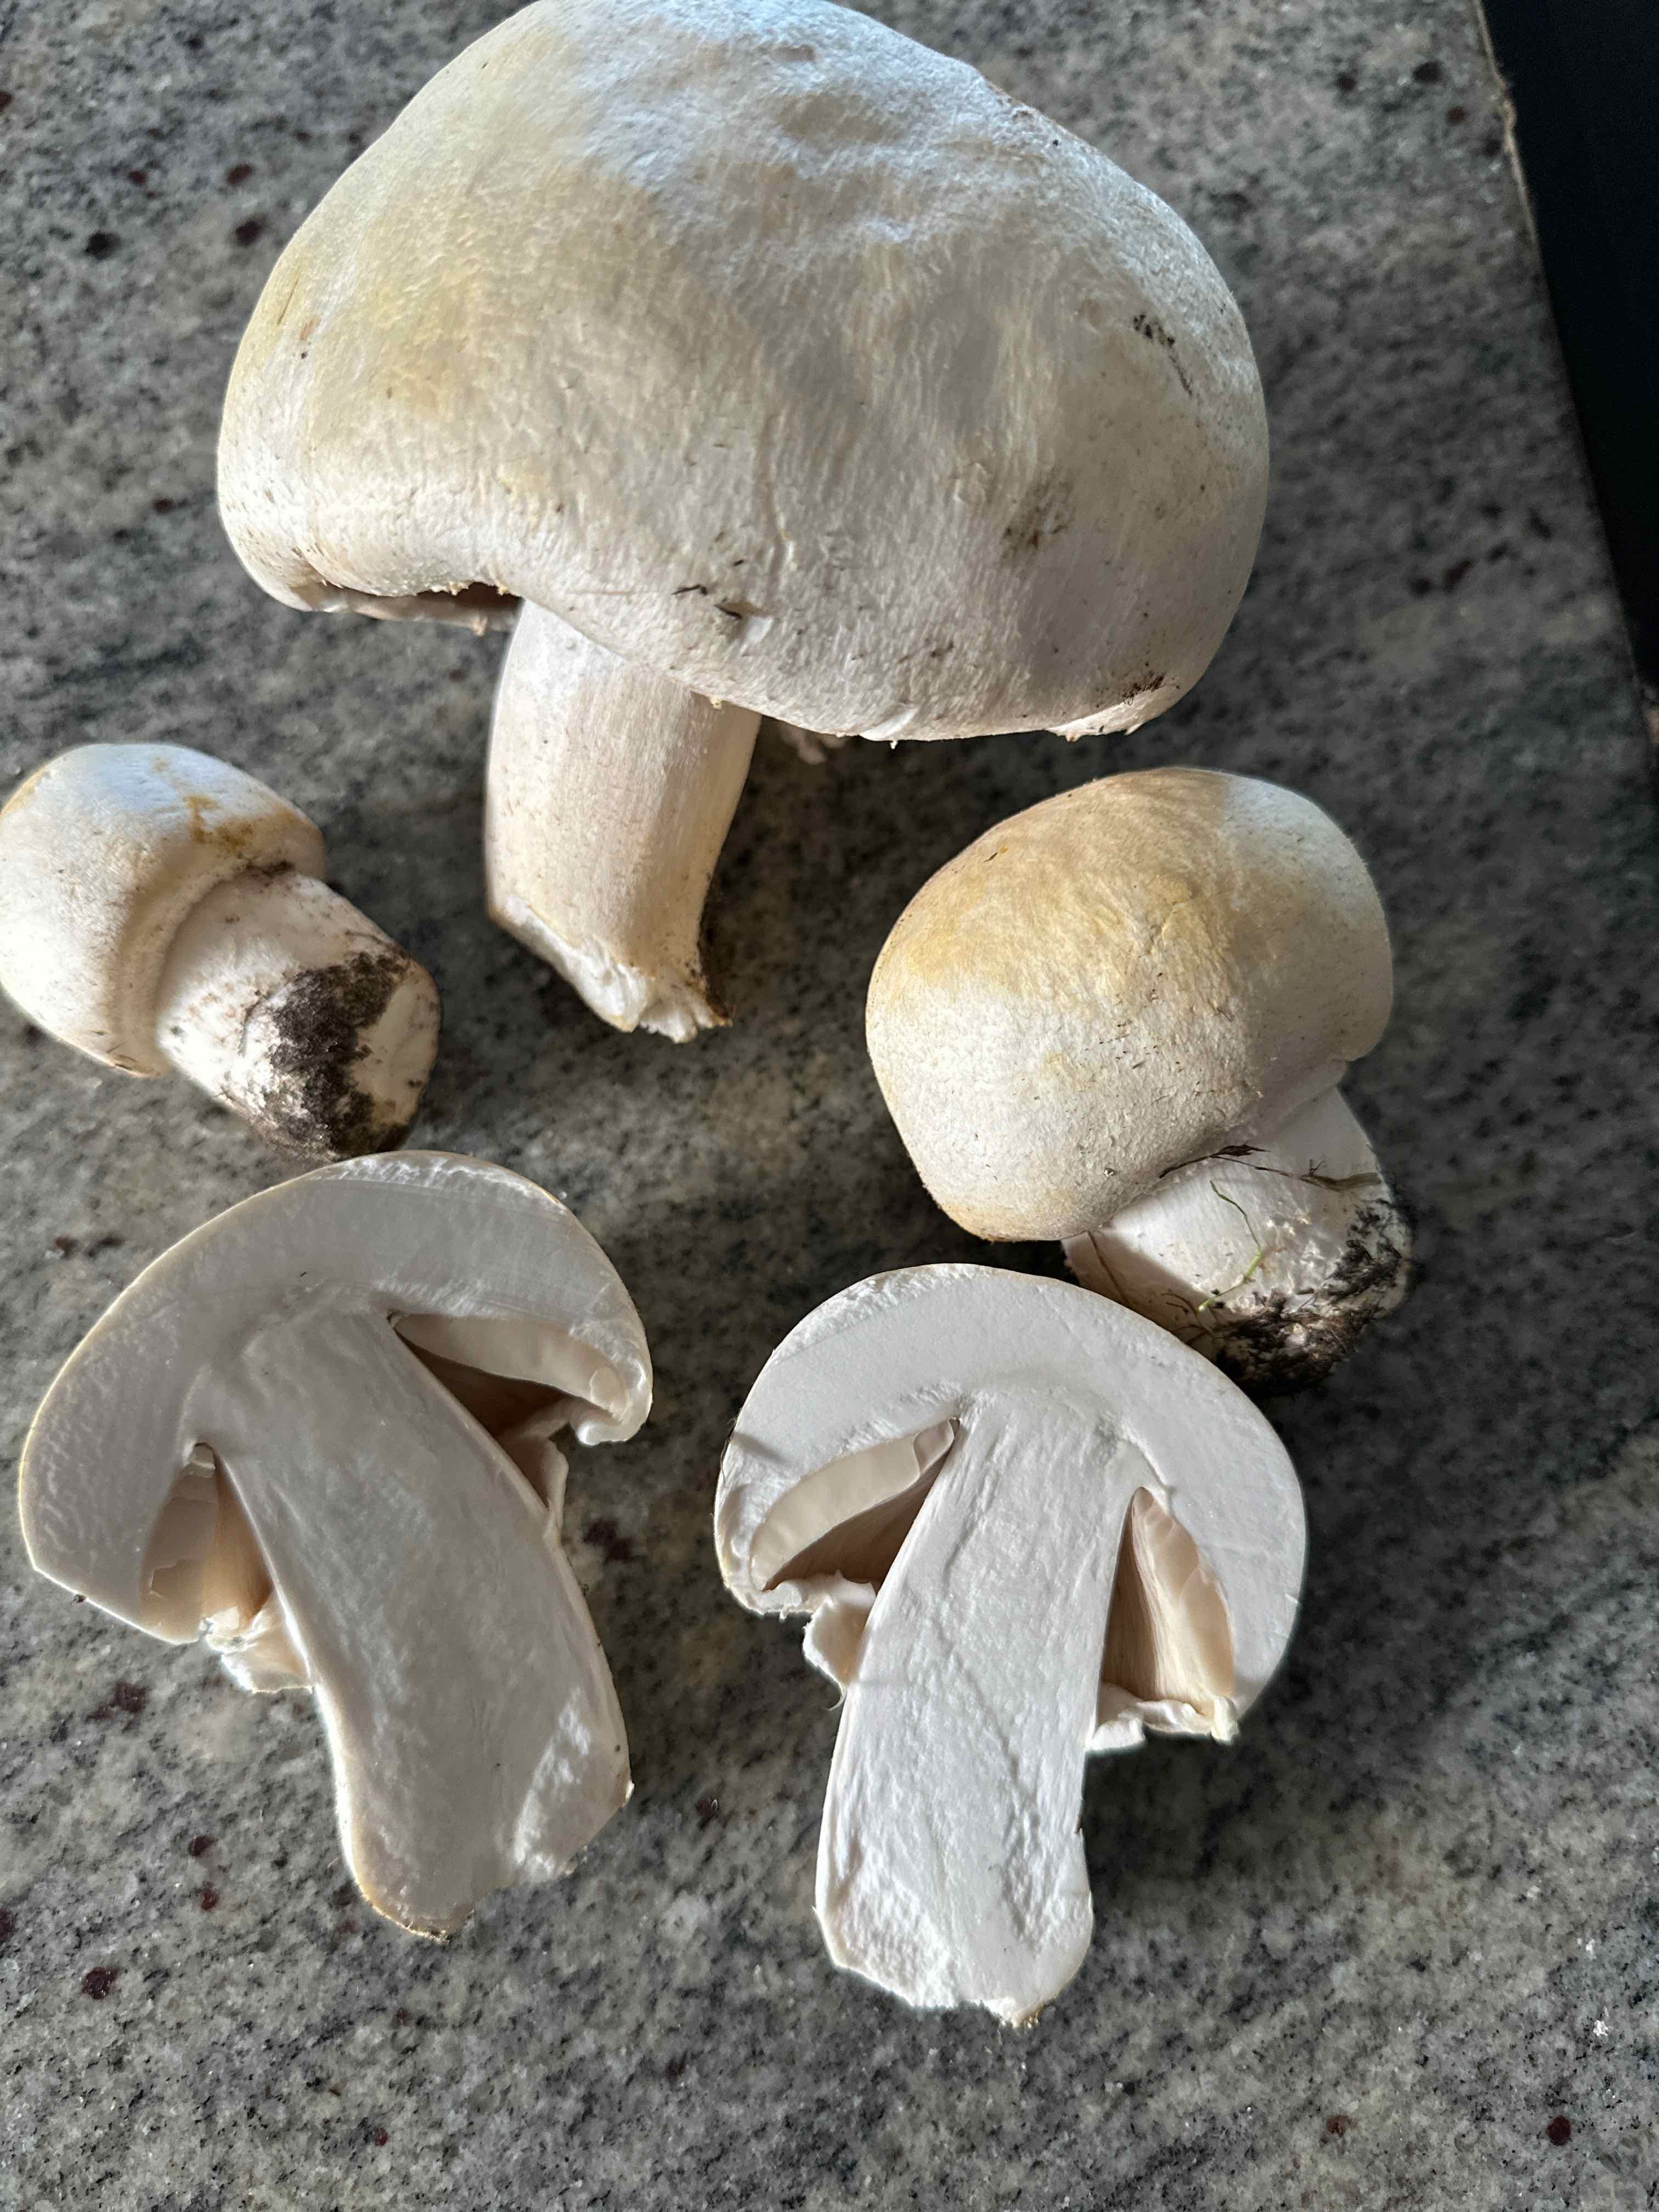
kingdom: Fungi
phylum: Basidiomycota
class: Agaricomycetes
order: Agaricales
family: Agaricaceae
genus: Agaricus
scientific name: Agaricus
